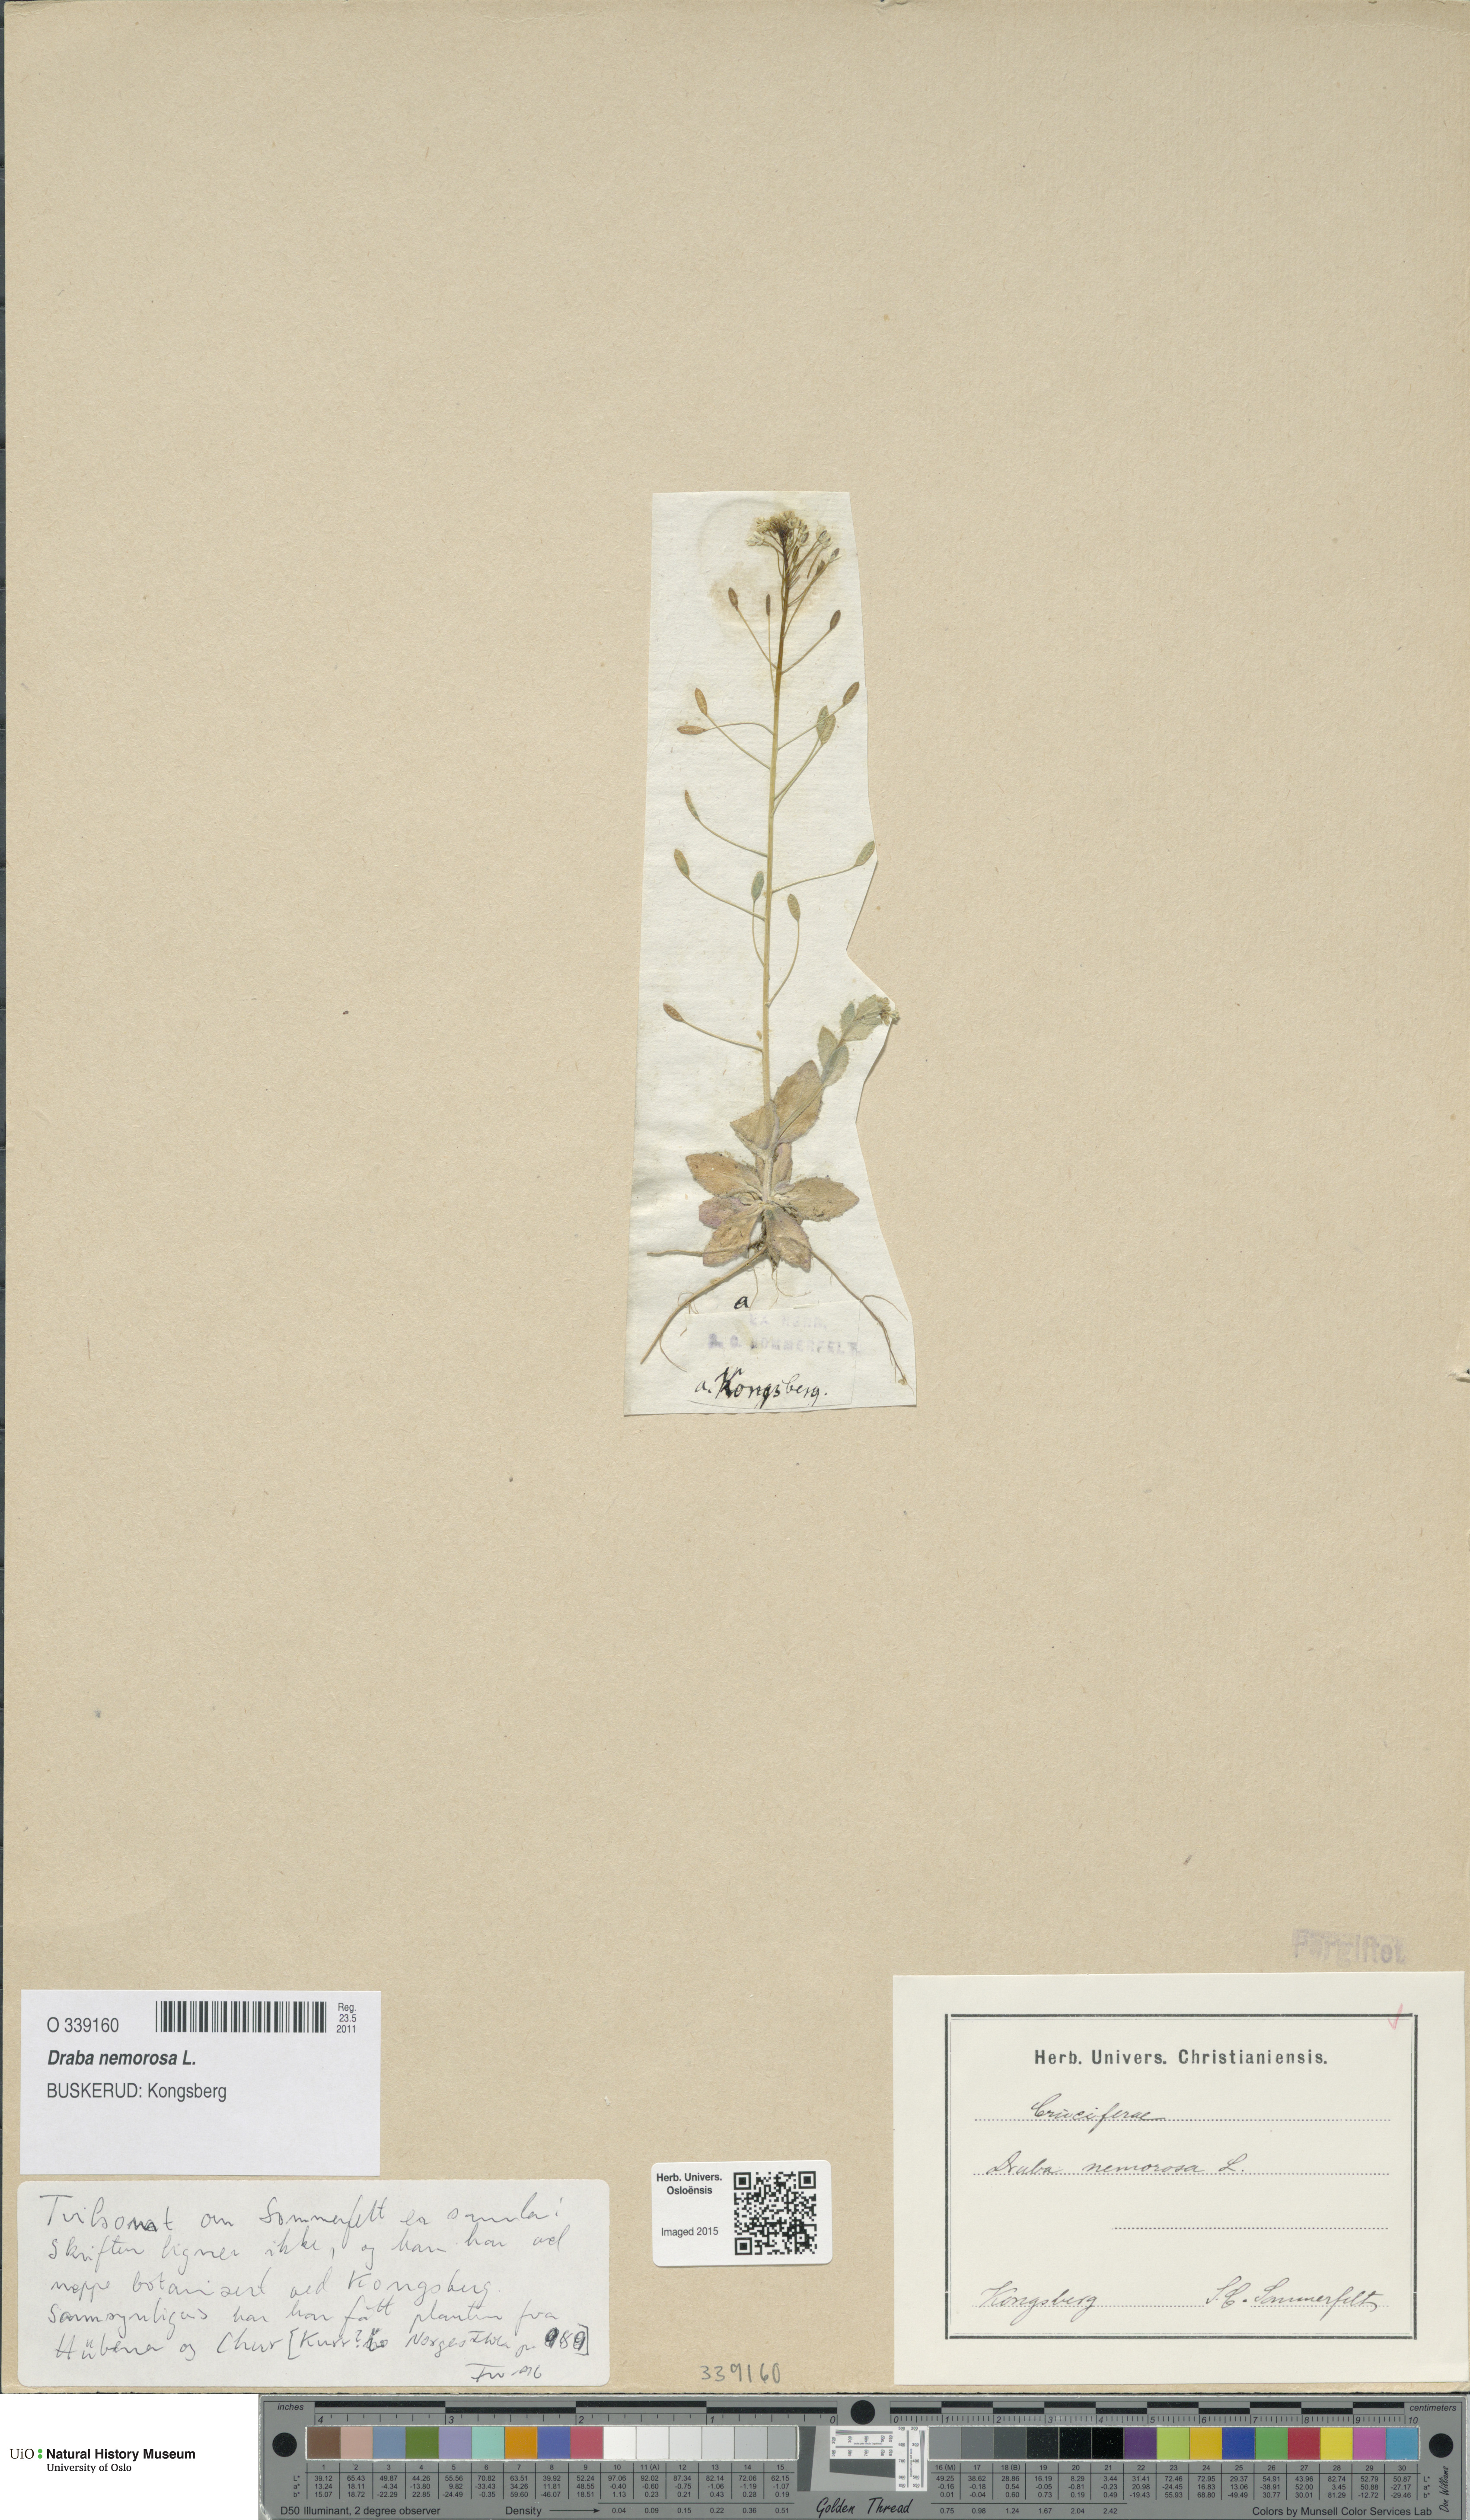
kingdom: Plantae
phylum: Tracheophyta
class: Magnoliopsida
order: Brassicales
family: Brassicaceae
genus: Draba
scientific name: Draba nemorosa
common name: Wood whitlow-grass
